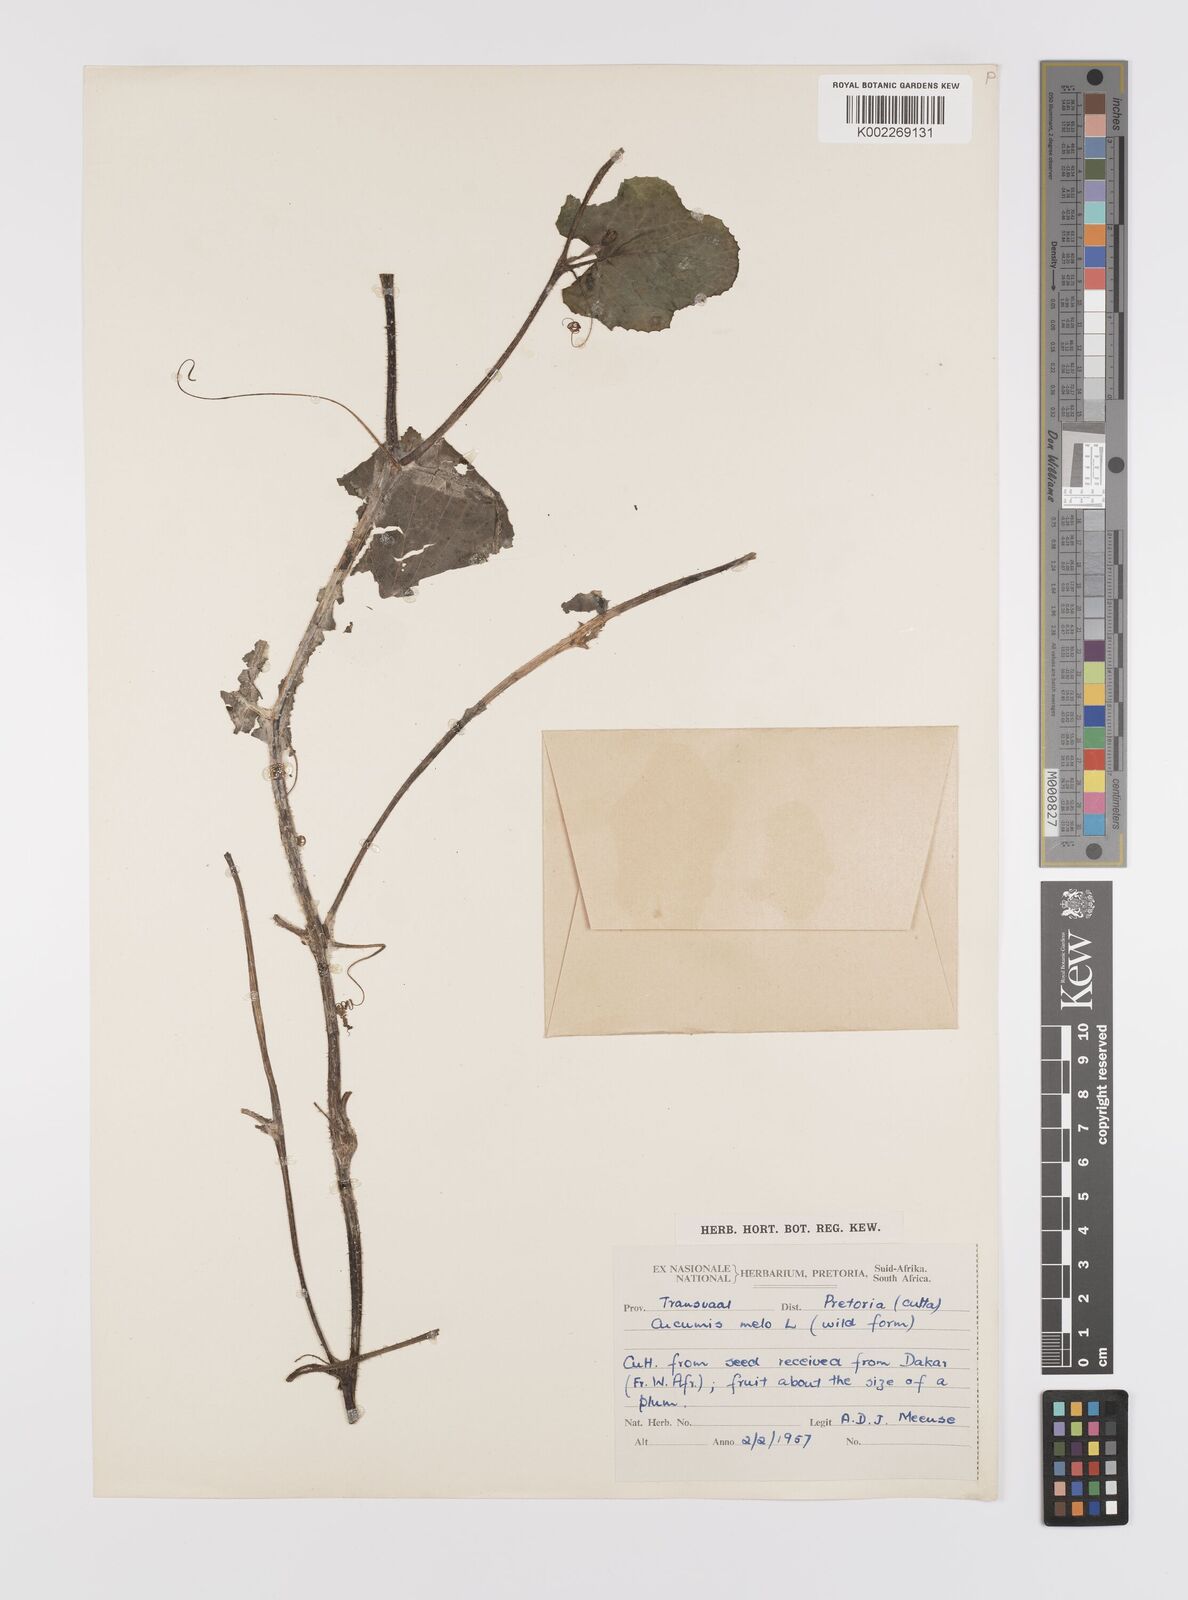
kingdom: Plantae
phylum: Tracheophyta
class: Magnoliopsida
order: Cucurbitales
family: Cucurbitaceae
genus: Cucumis
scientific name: Cucumis melo
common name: Melon
